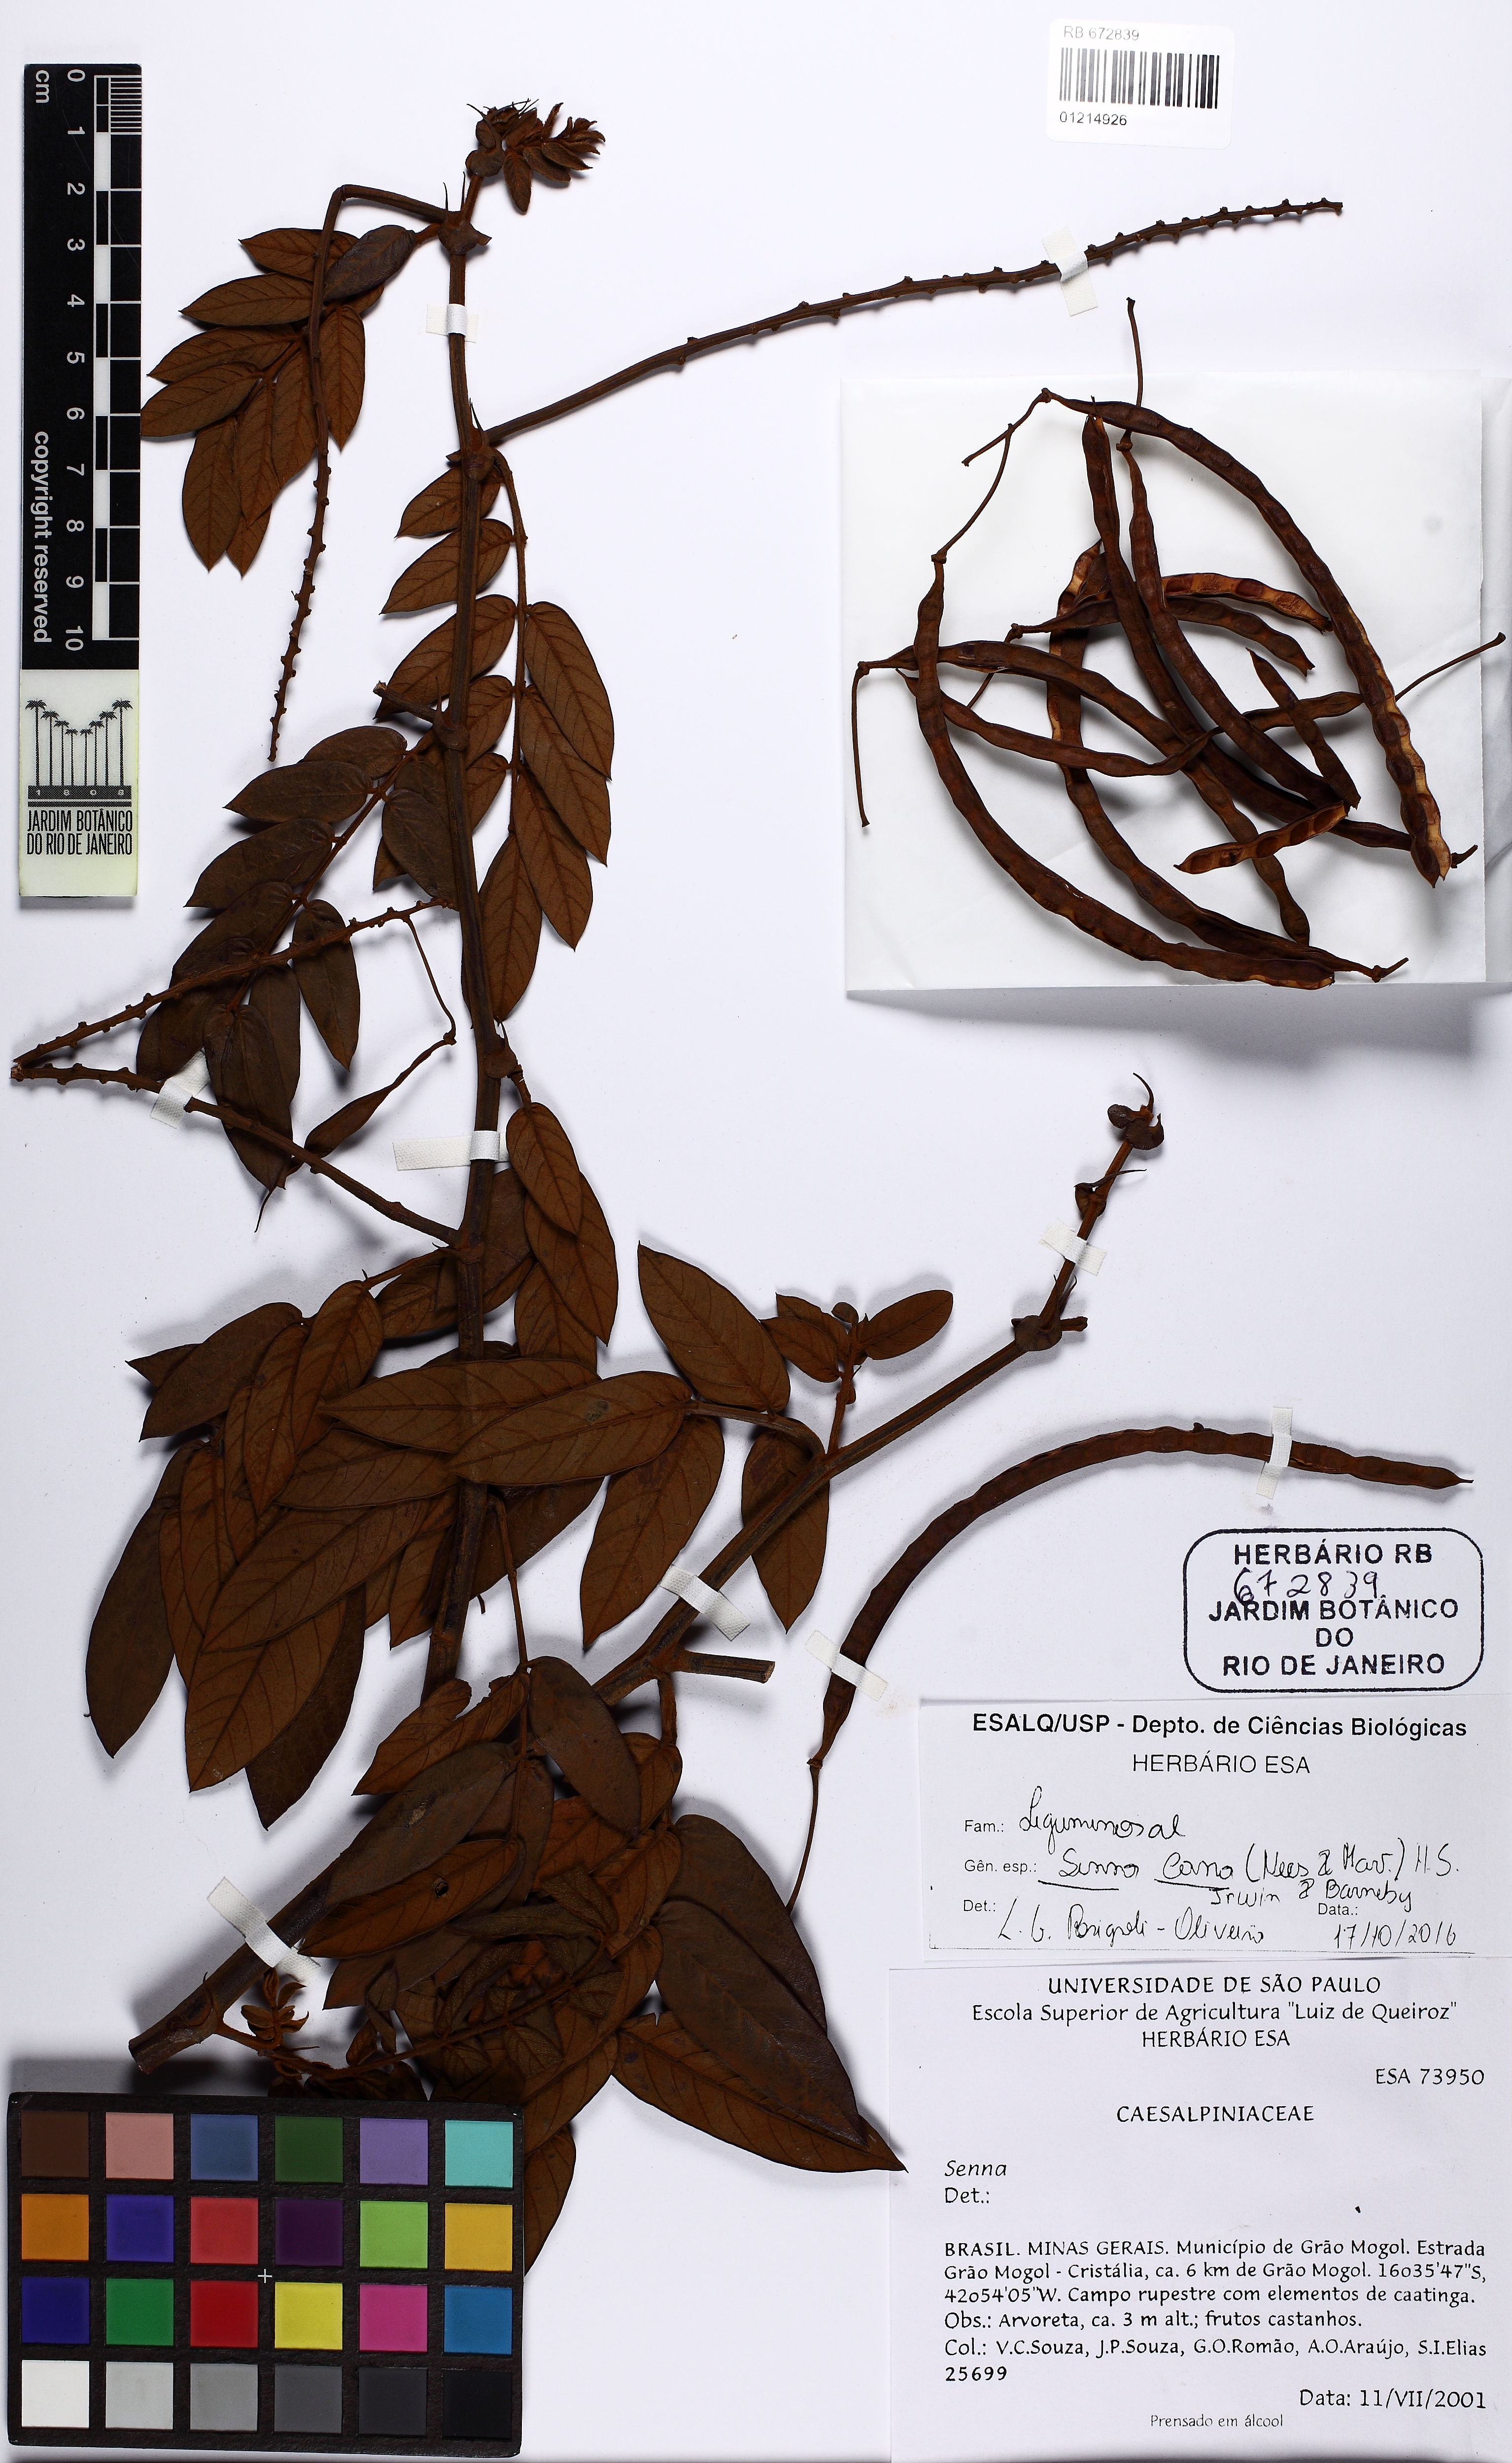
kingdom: Plantae
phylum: Tracheophyta
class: Magnoliopsida
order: Fabales
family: Fabaceae
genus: Senna
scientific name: Senna cana
